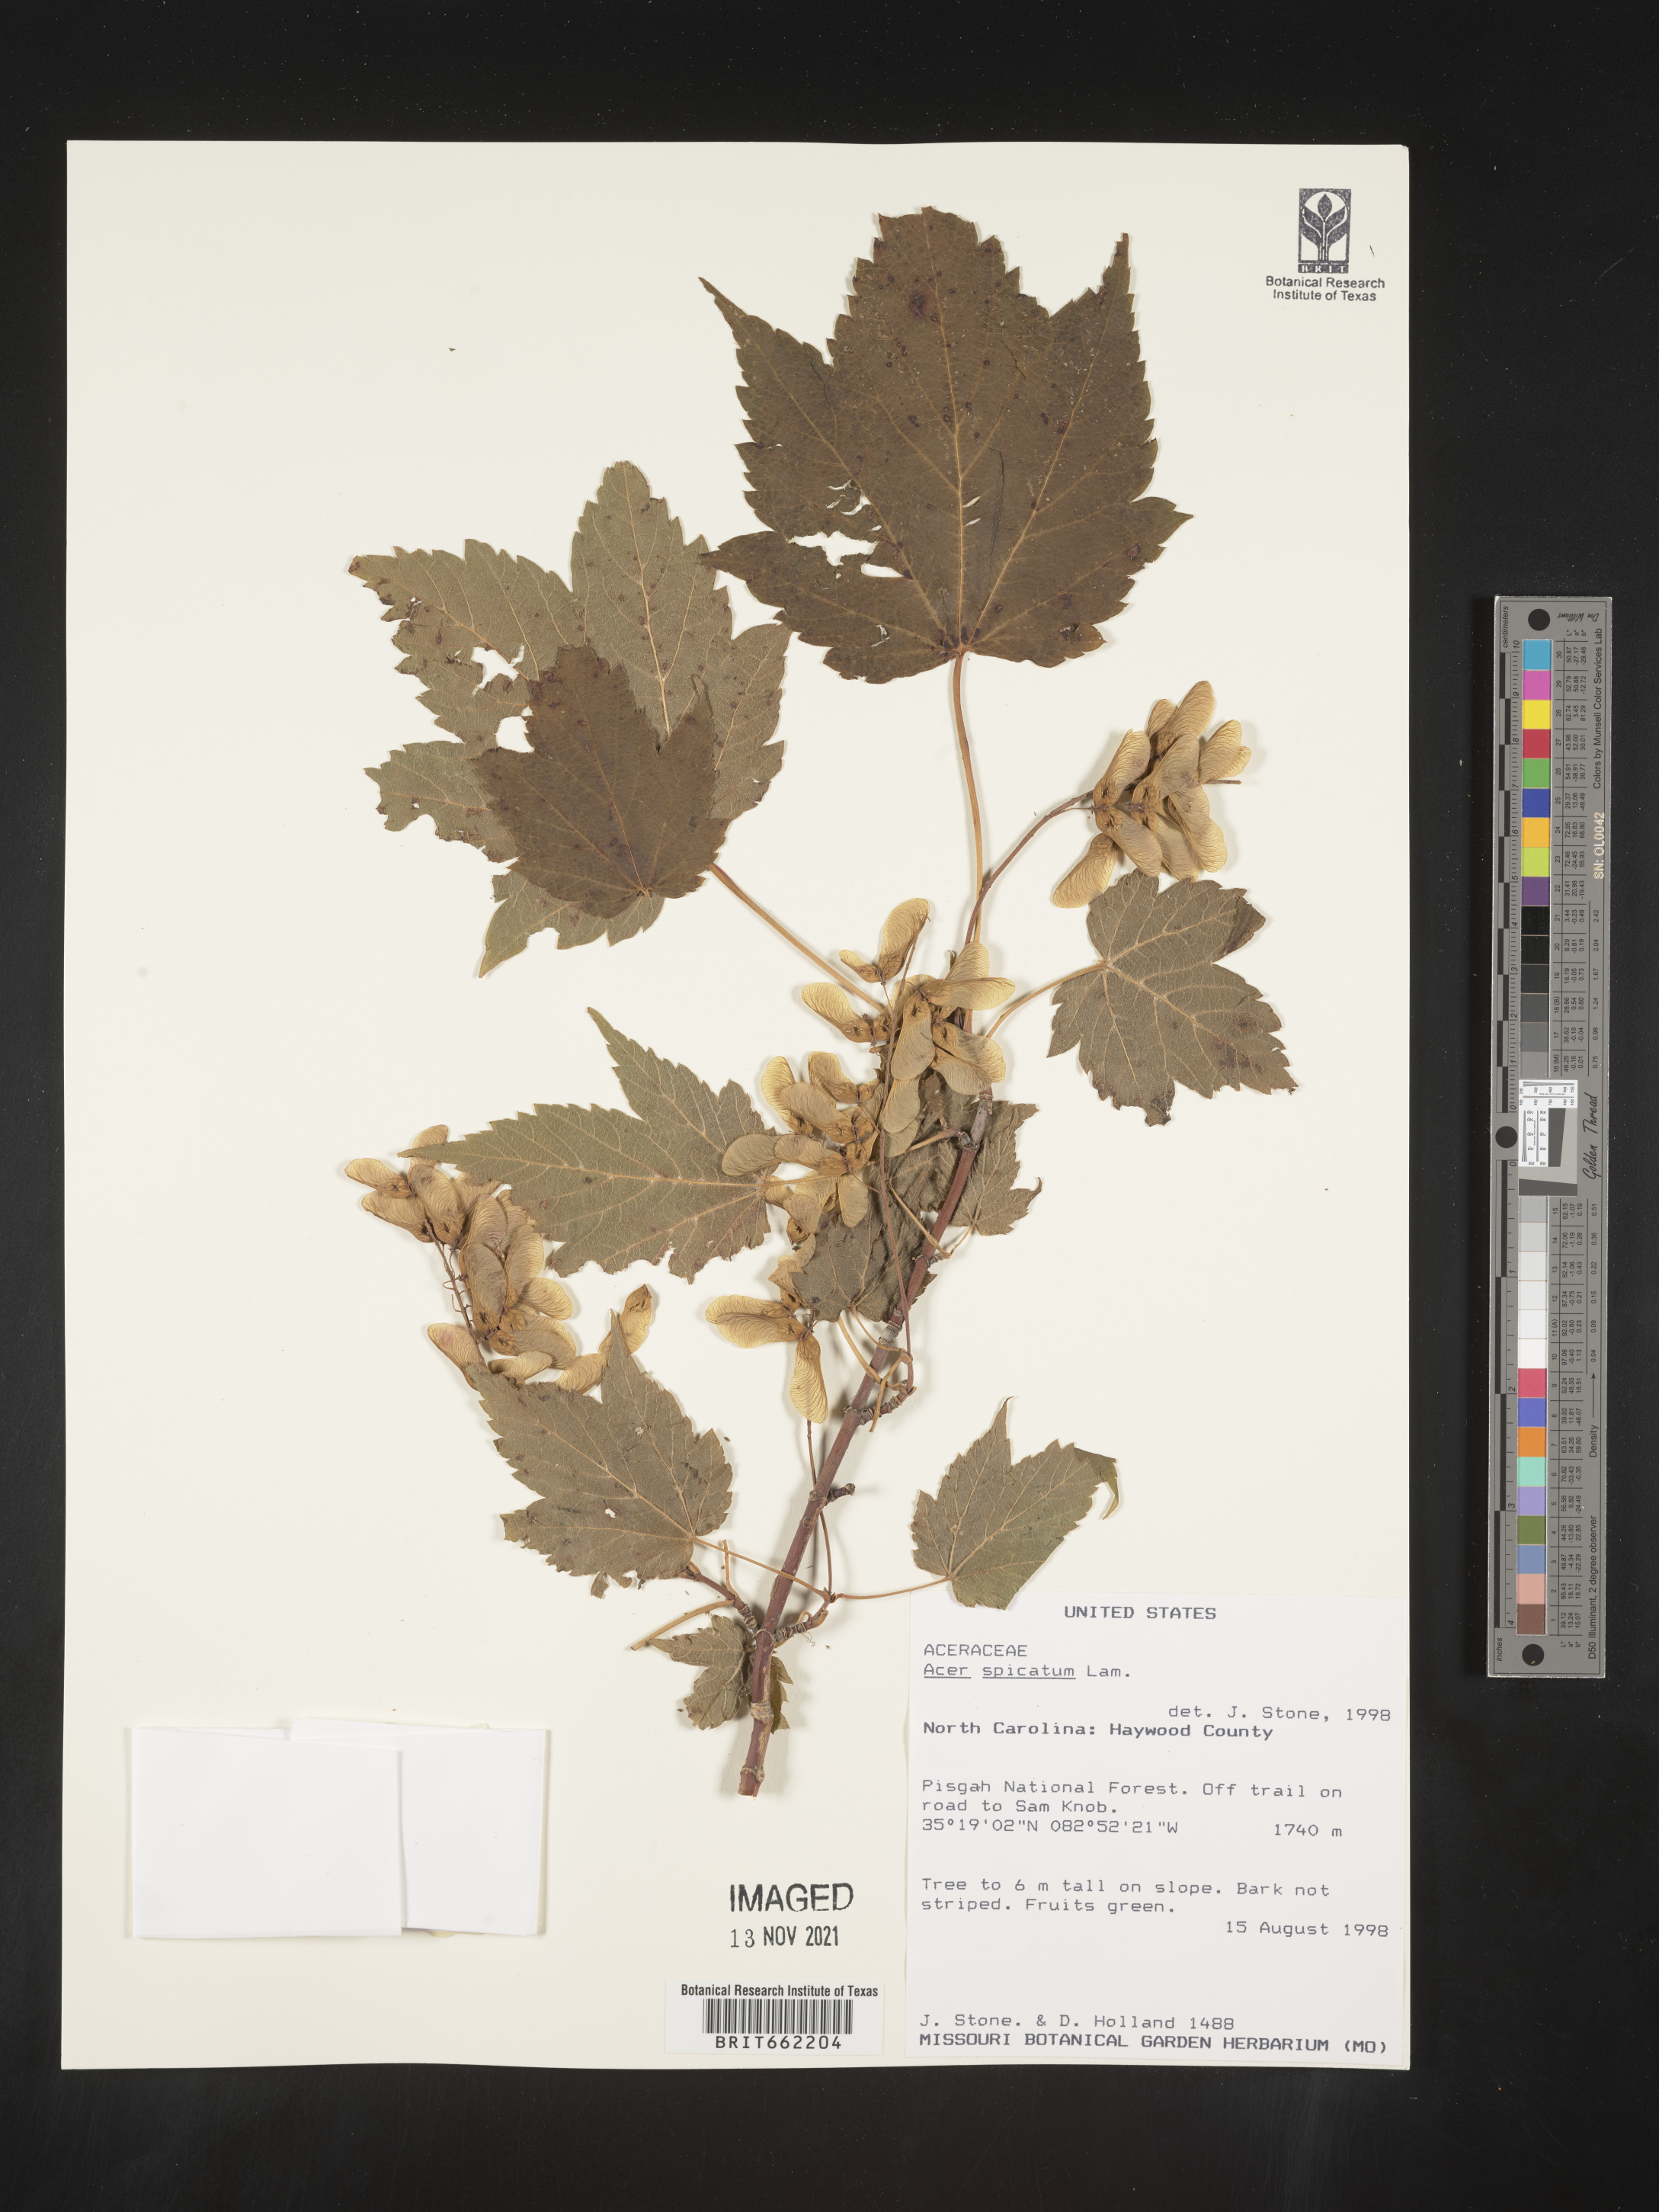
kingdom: Plantae
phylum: Tracheophyta
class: Magnoliopsida
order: Sapindales
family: Sapindaceae
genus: Acer
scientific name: Acer spicatum
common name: Mountain maple
